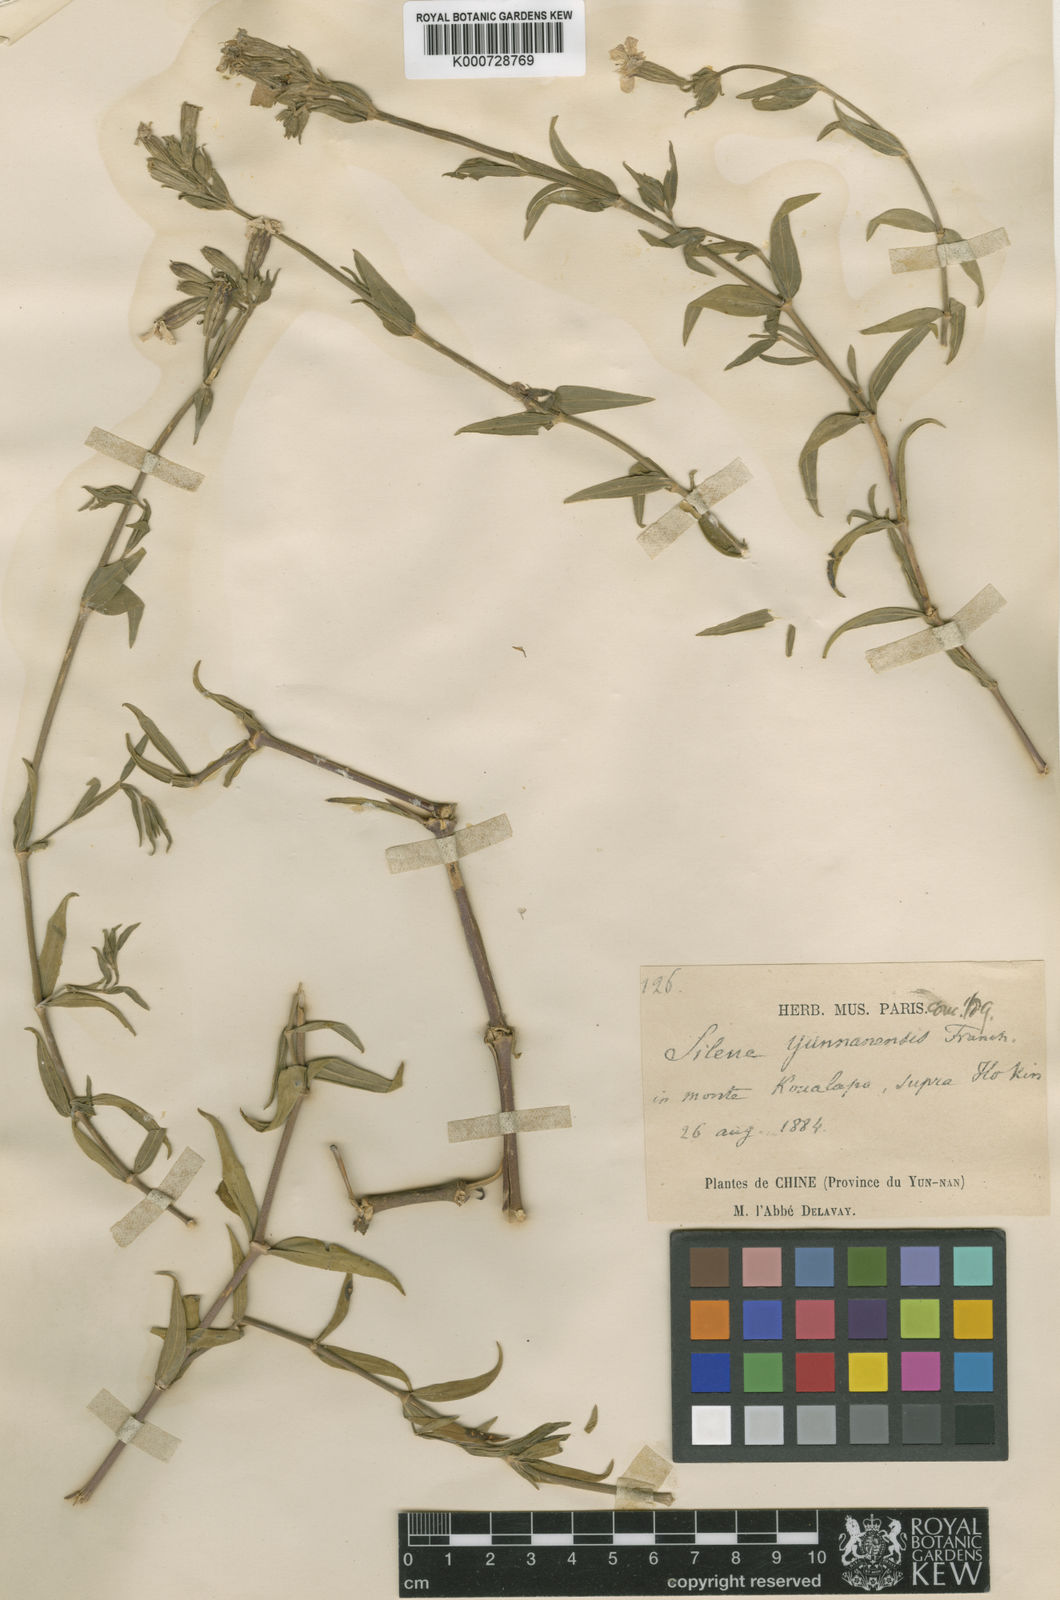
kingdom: Plantae
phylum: Tracheophyta
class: Magnoliopsida
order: Caryophyllales
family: Caryophyllaceae
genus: Silene
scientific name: Silene yunnanensis
